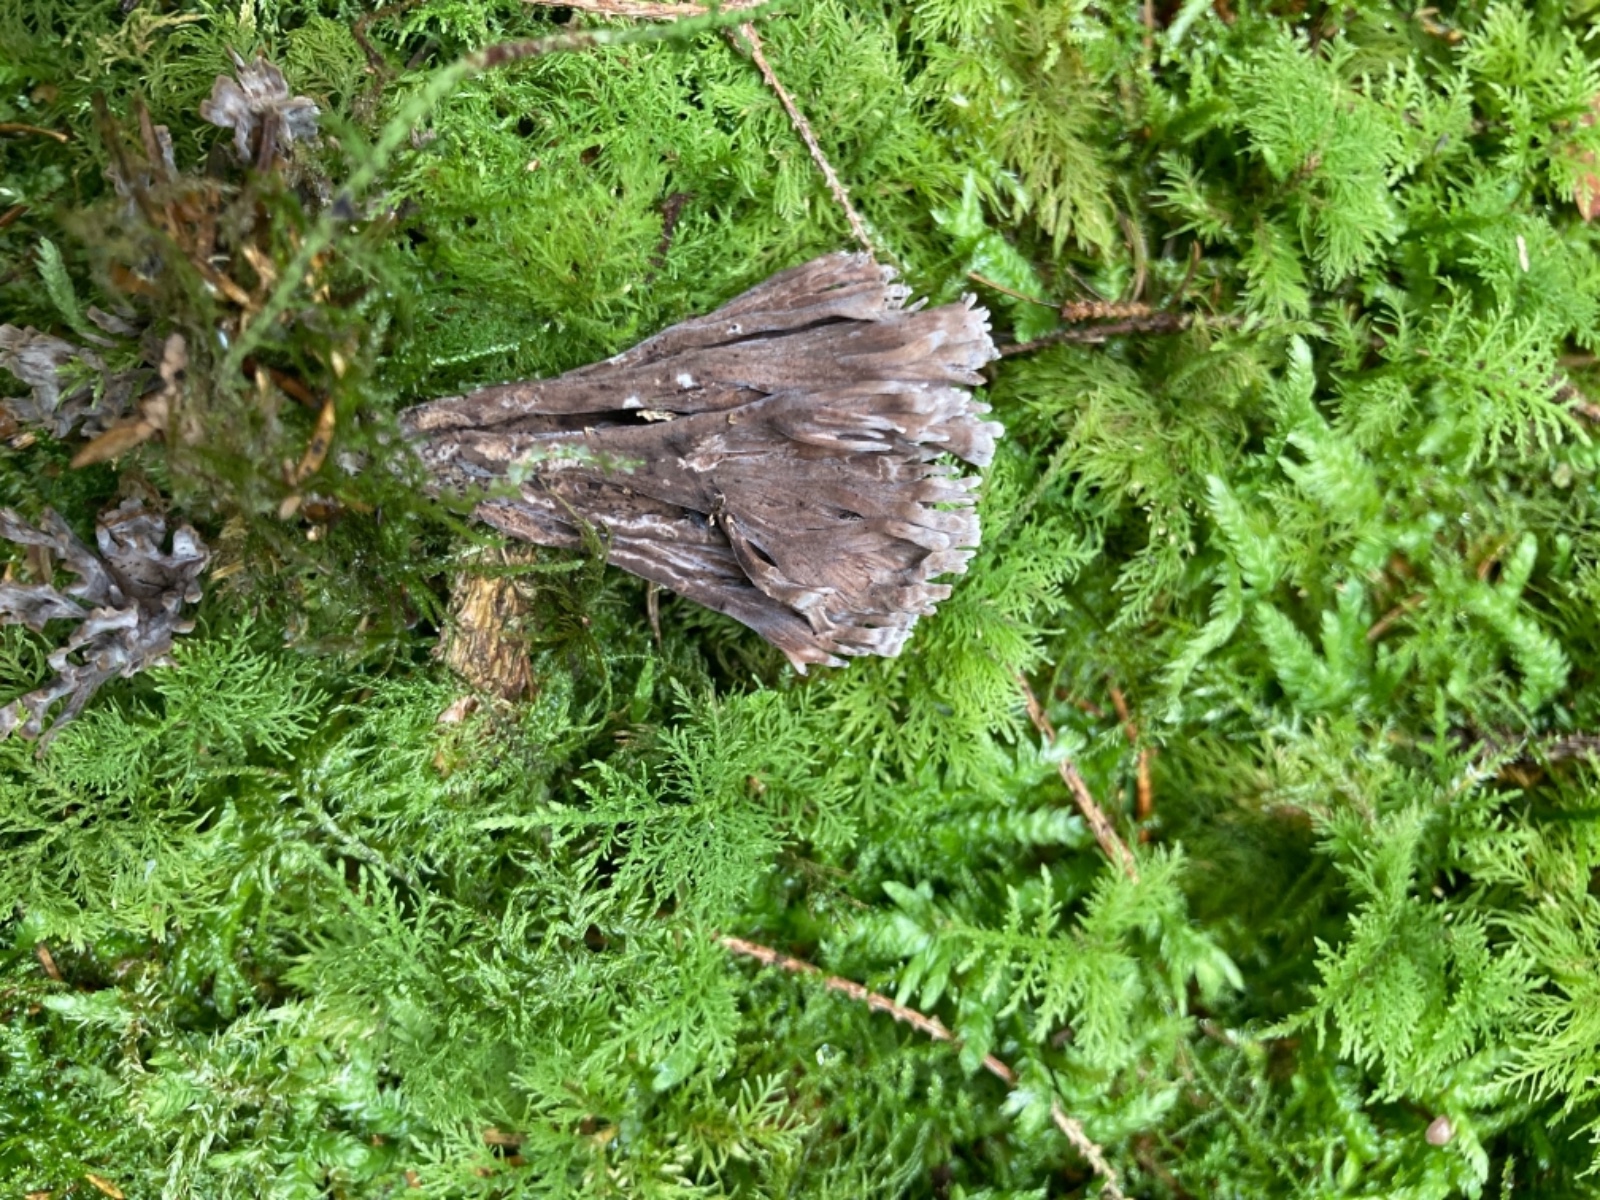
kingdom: Fungi
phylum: Basidiomycota
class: Agaricomycetes
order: Thelephorales
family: Thelephoraceae
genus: Thelephora
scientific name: Thelephora palmata
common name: grenet frynsesvamp
